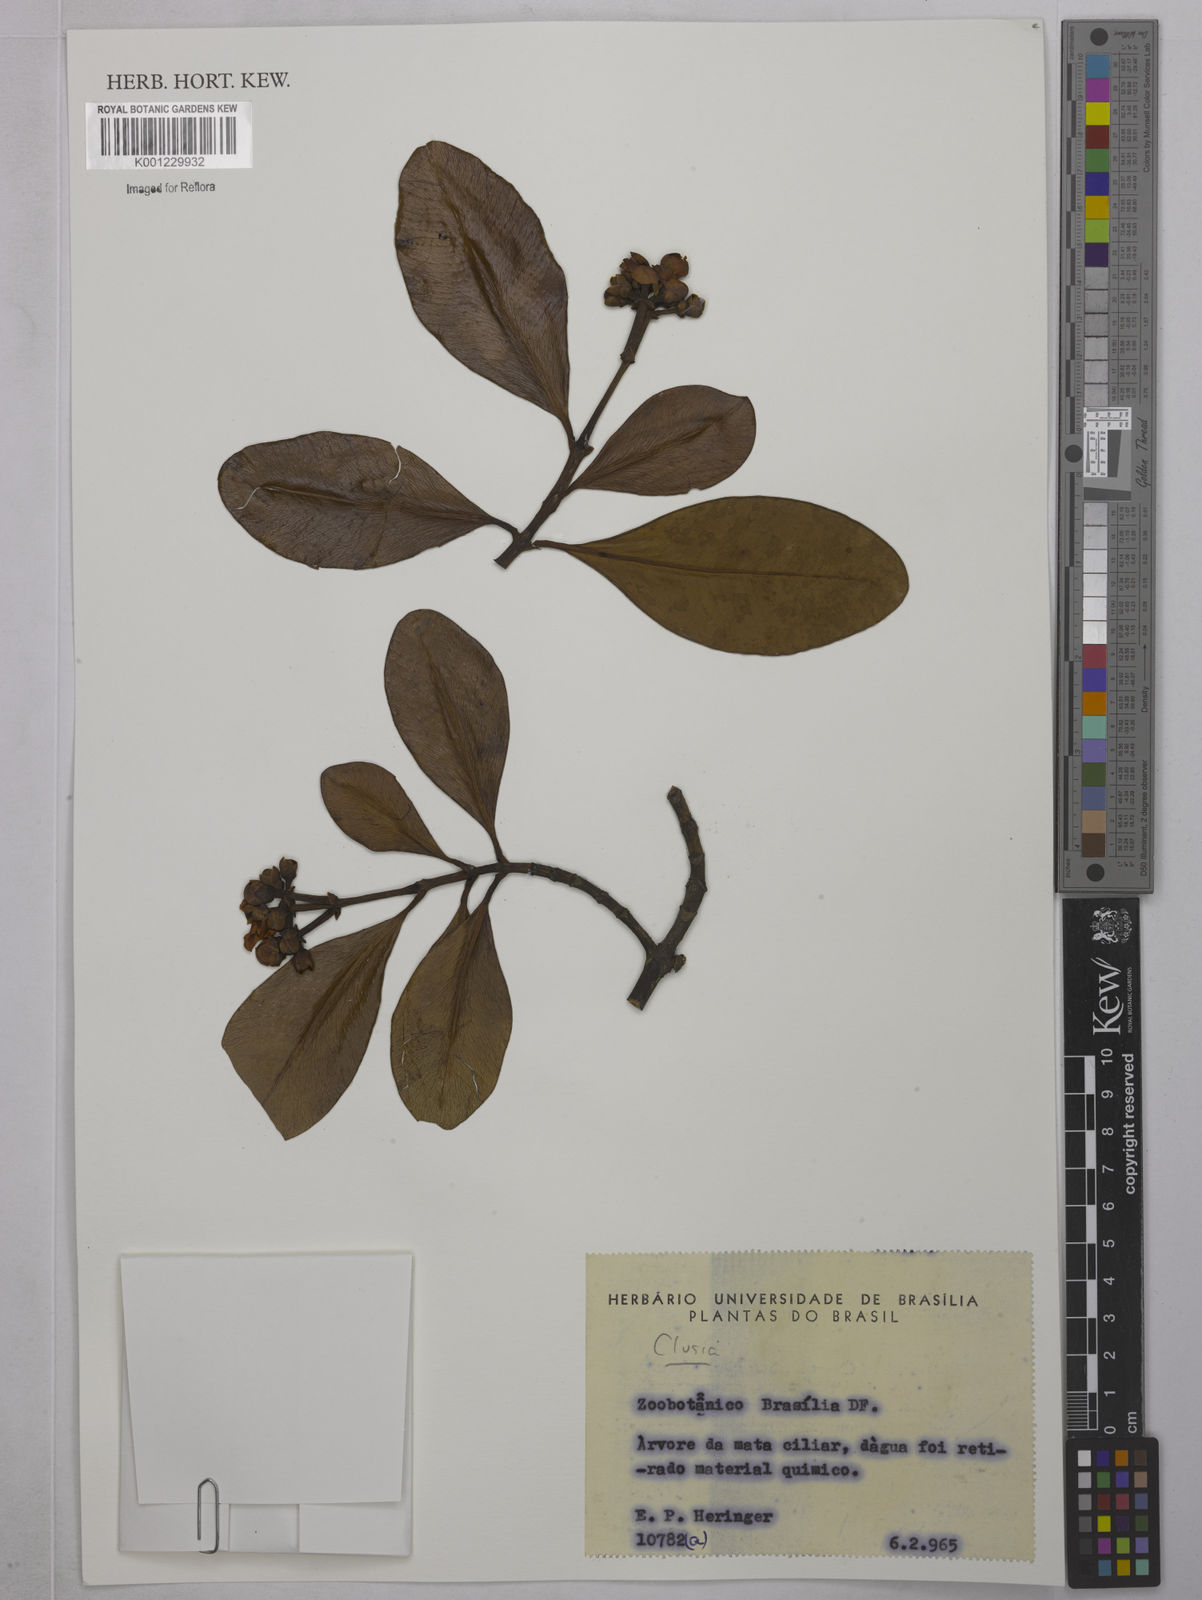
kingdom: Plantae
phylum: Tracheophyta
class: Magnoliopsida
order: Malpighiales
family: Clusiaceae
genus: Clusia
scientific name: Clusia
